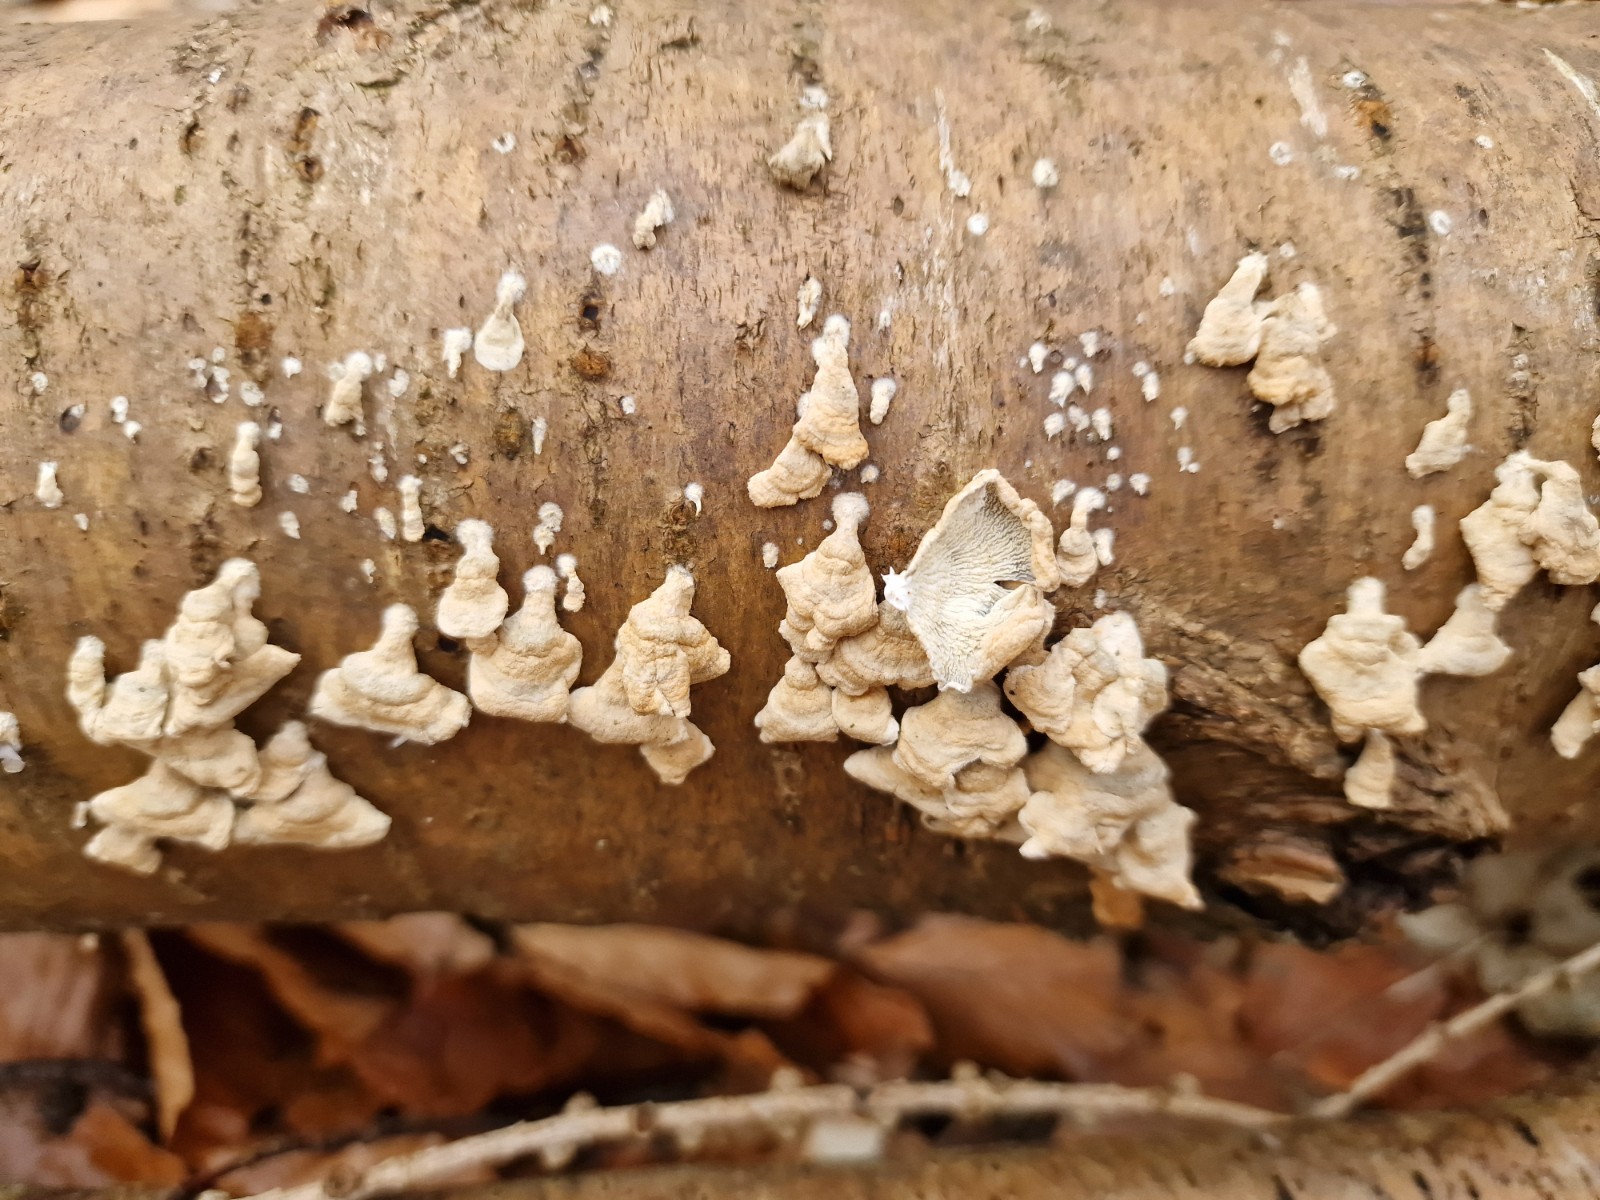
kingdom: Fungi
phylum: Basidiomycota
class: Agaricomycetes
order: Amylocorticiales
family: Amylocorticiaceae
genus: Plicaturopsis
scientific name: Plicaturopsis crispa
